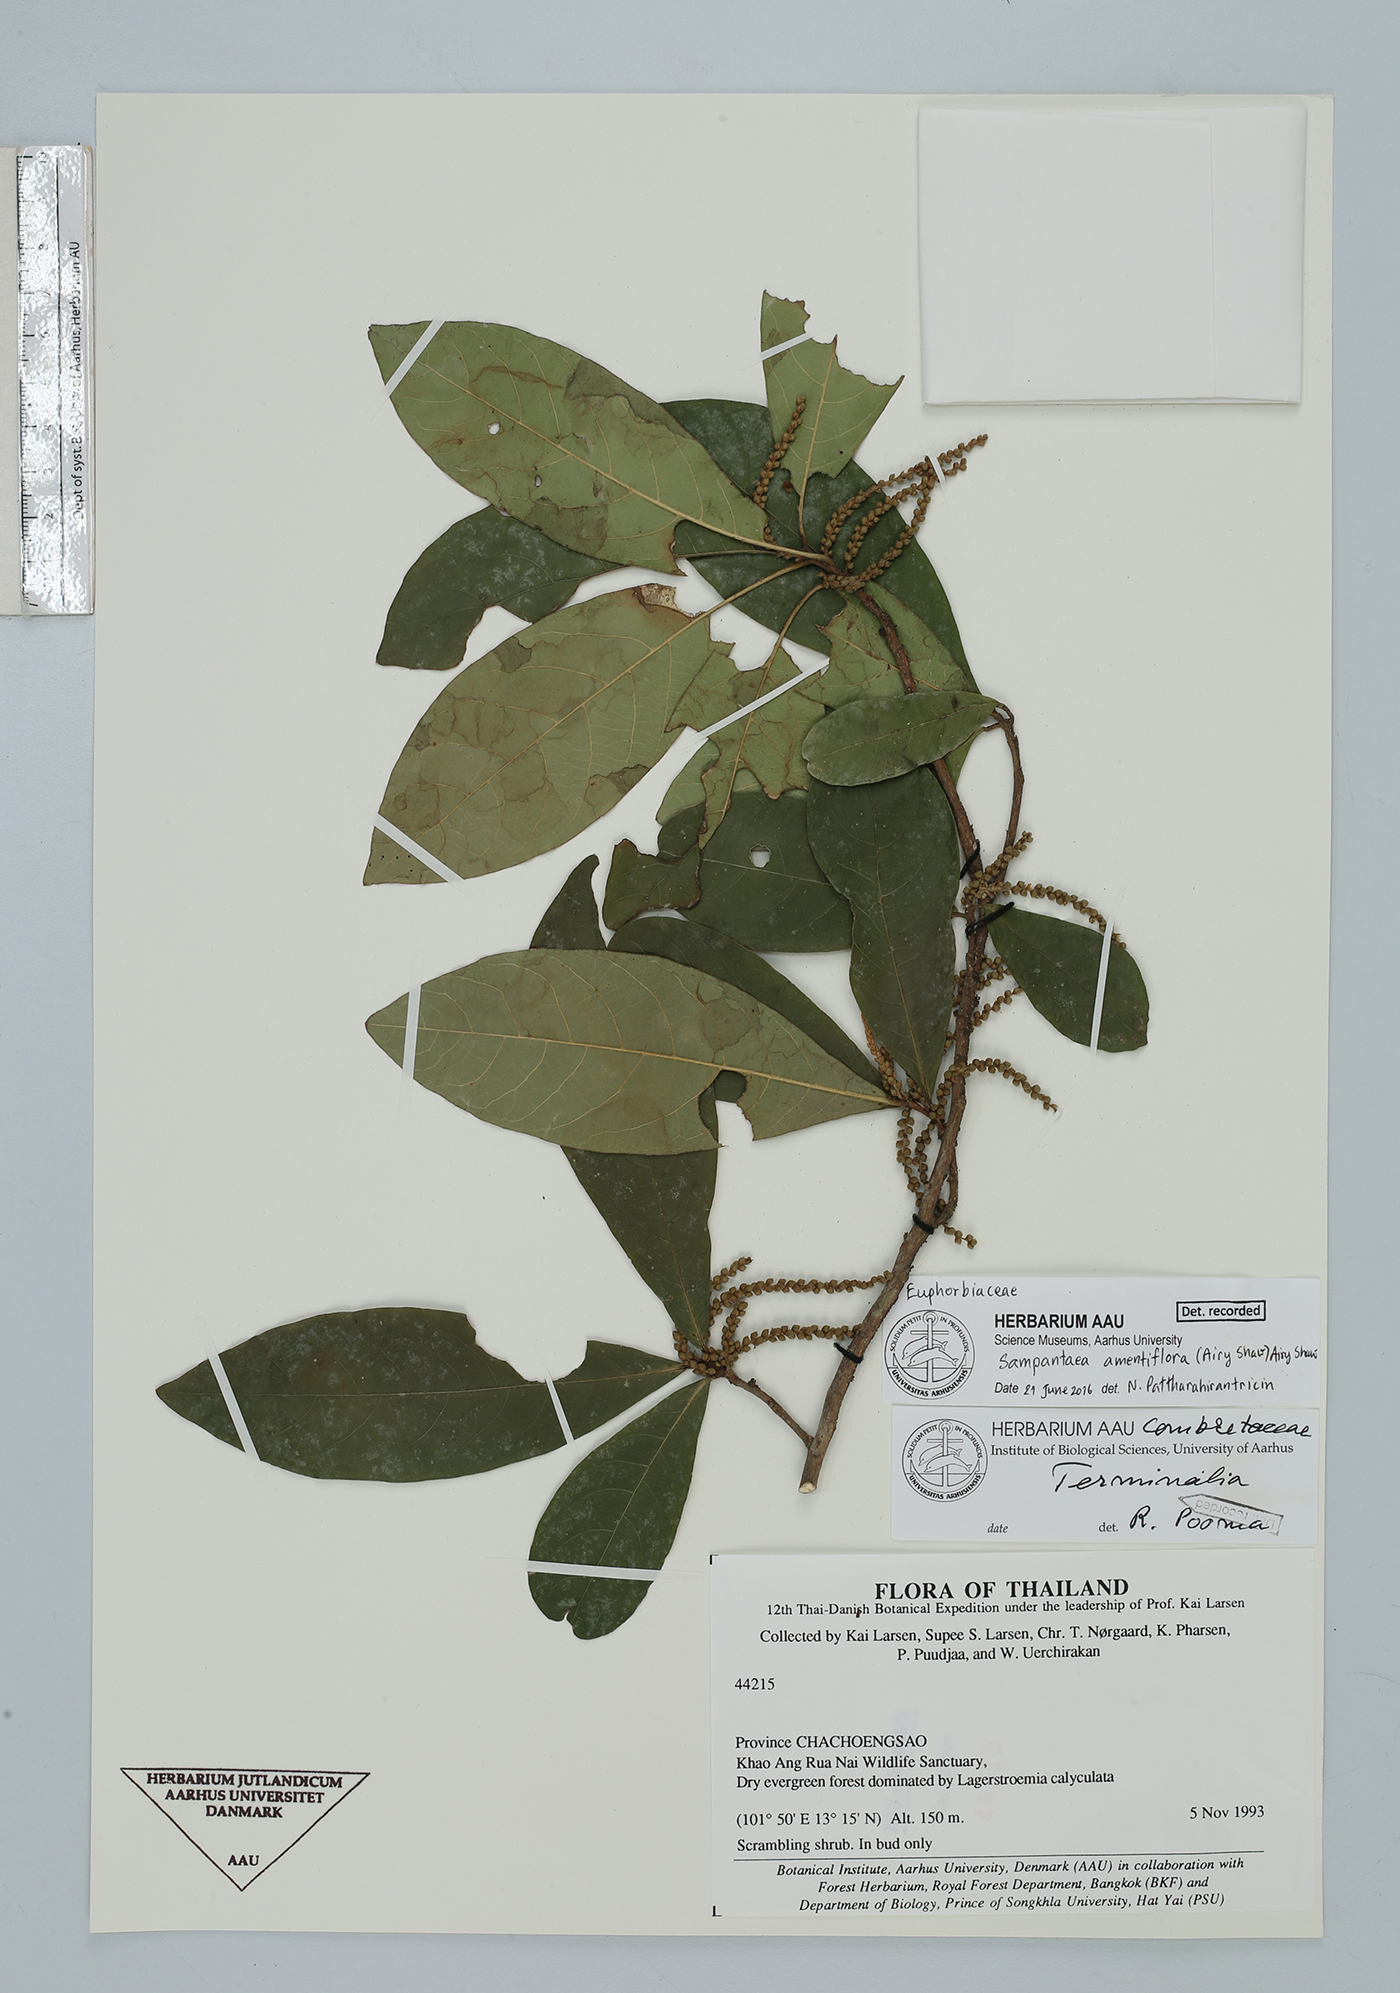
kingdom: Plantae
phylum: Tracheophyta
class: Magnoliopsida
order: Malpighiales
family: Euphorbiaceae
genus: Sampantaea
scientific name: Sampantaea amentiflora
